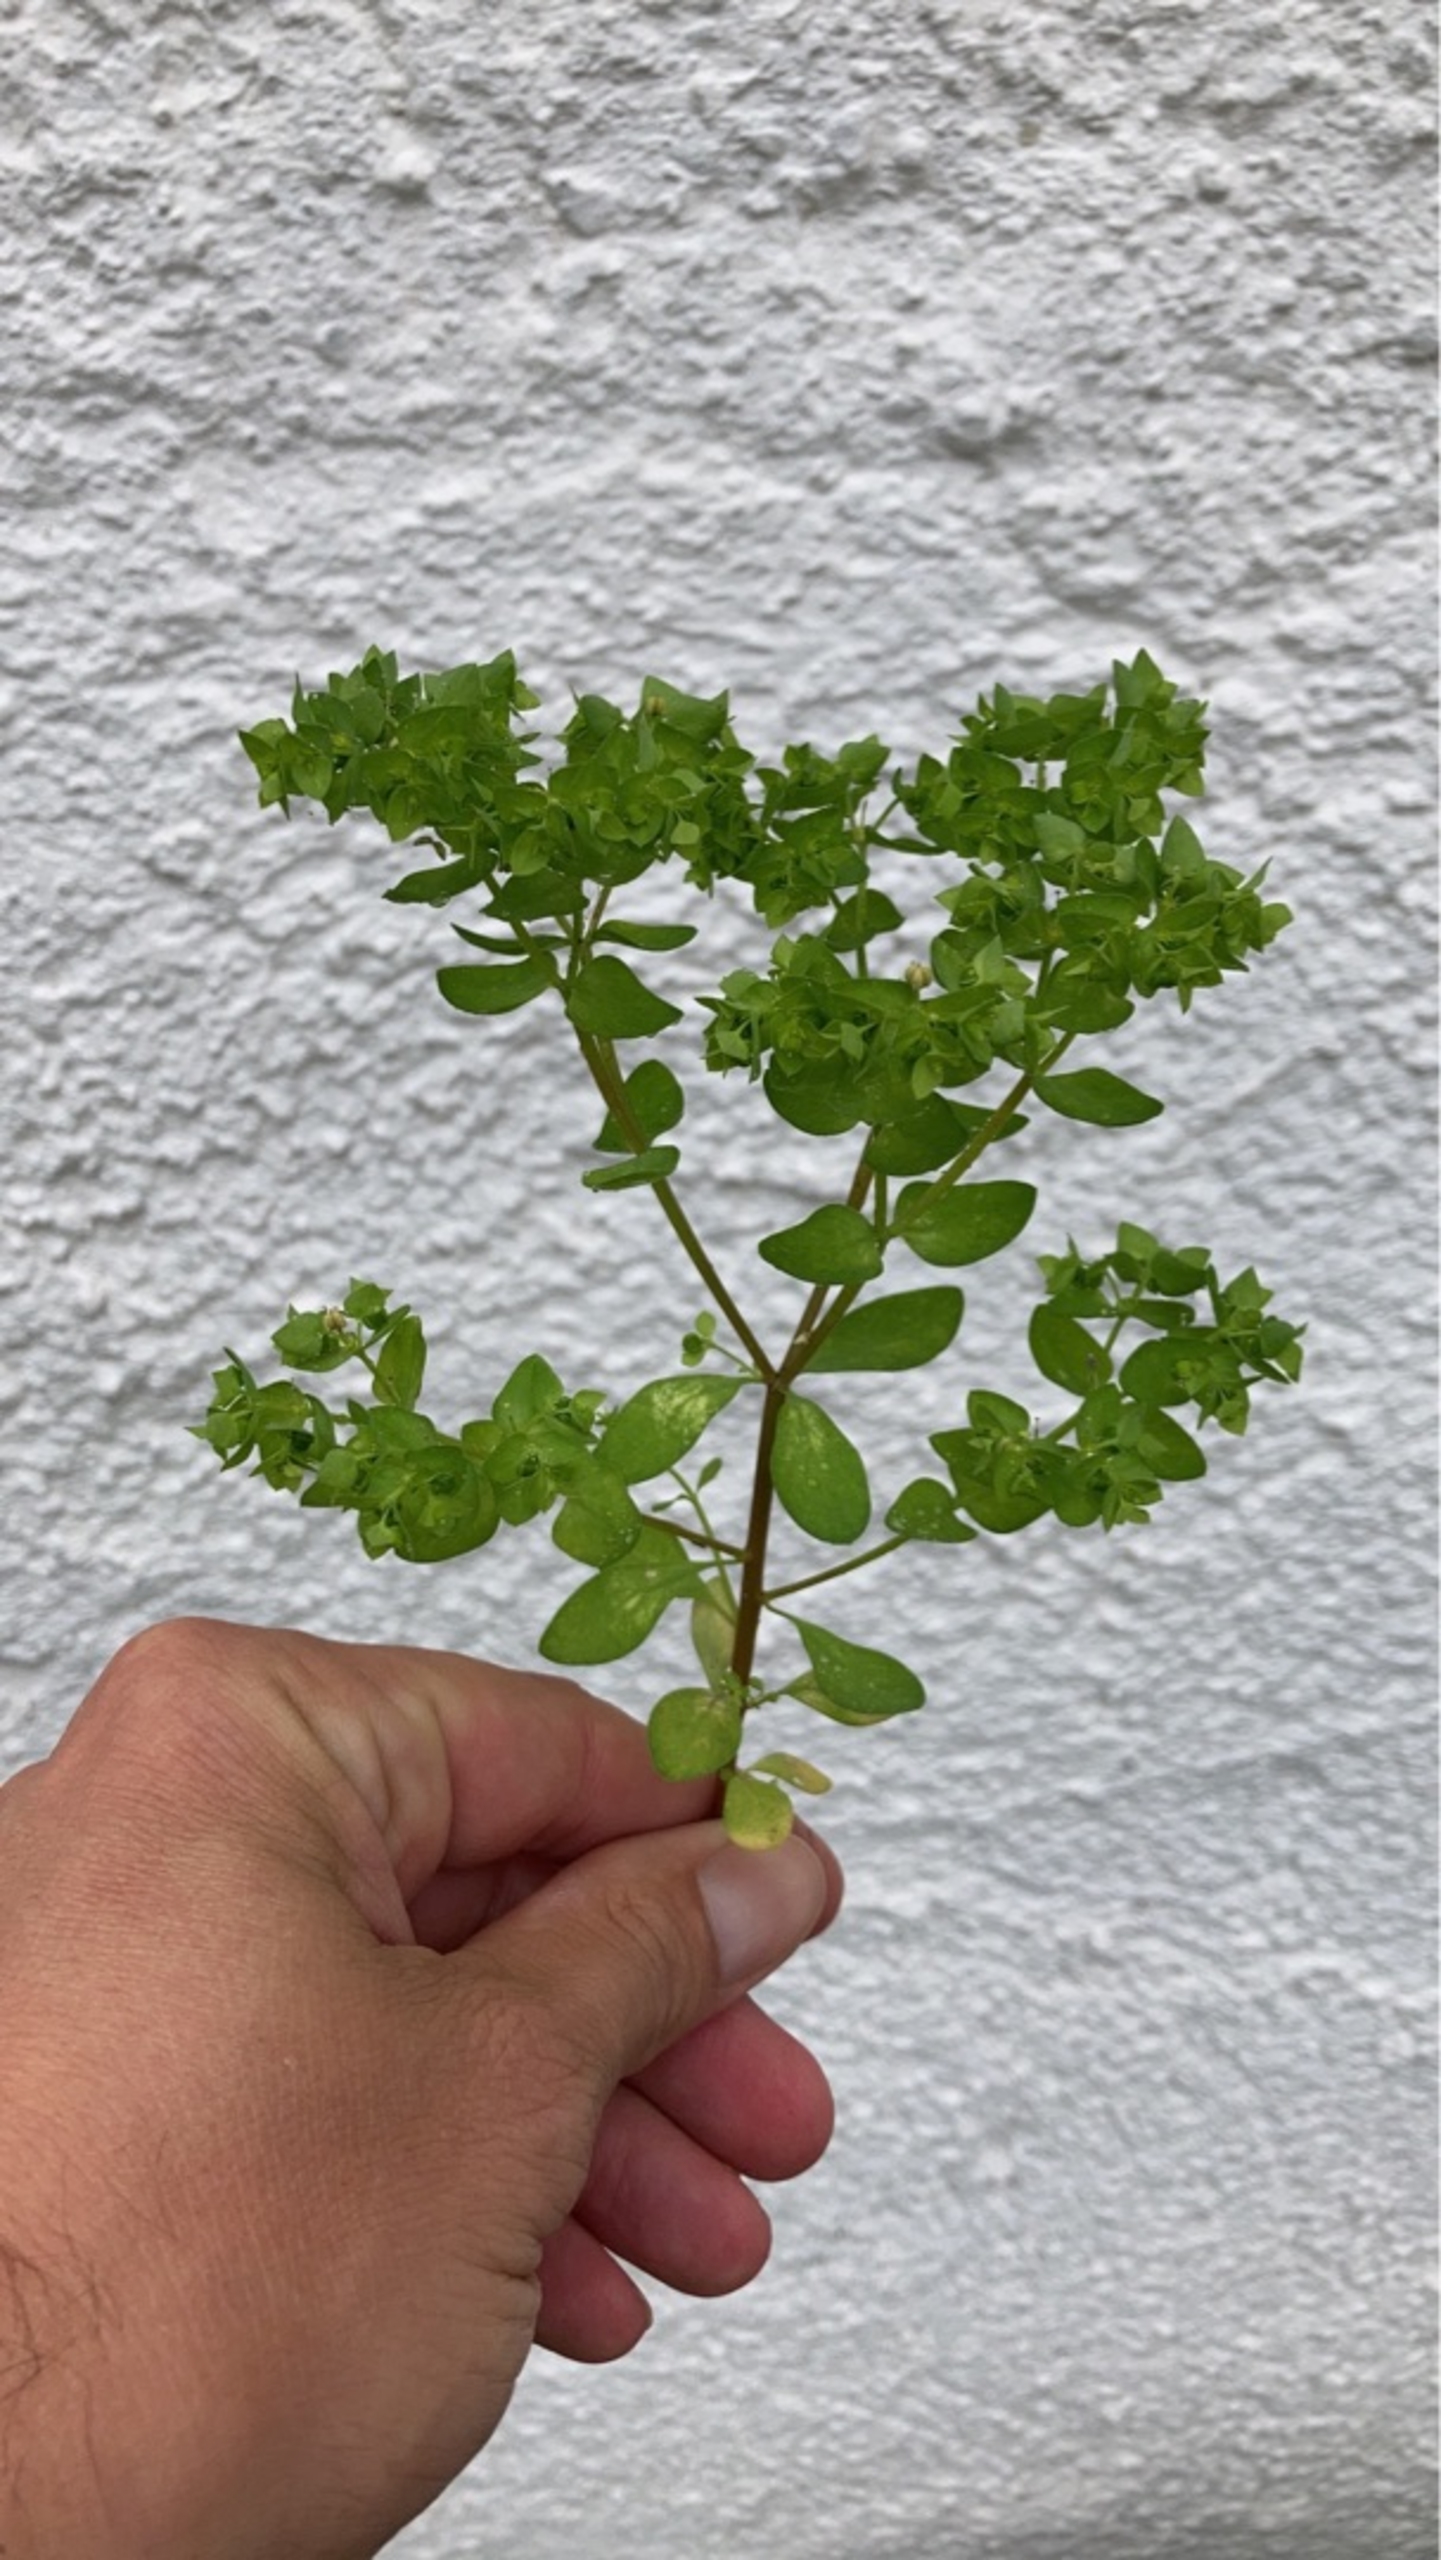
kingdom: Plantae
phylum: Tracheophyta
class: Magnoliopsida
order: Malpighiales
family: Euphorbiaceae
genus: Euphorbia
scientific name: Euphorbia peplus
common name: Gaffel-vortemælk
